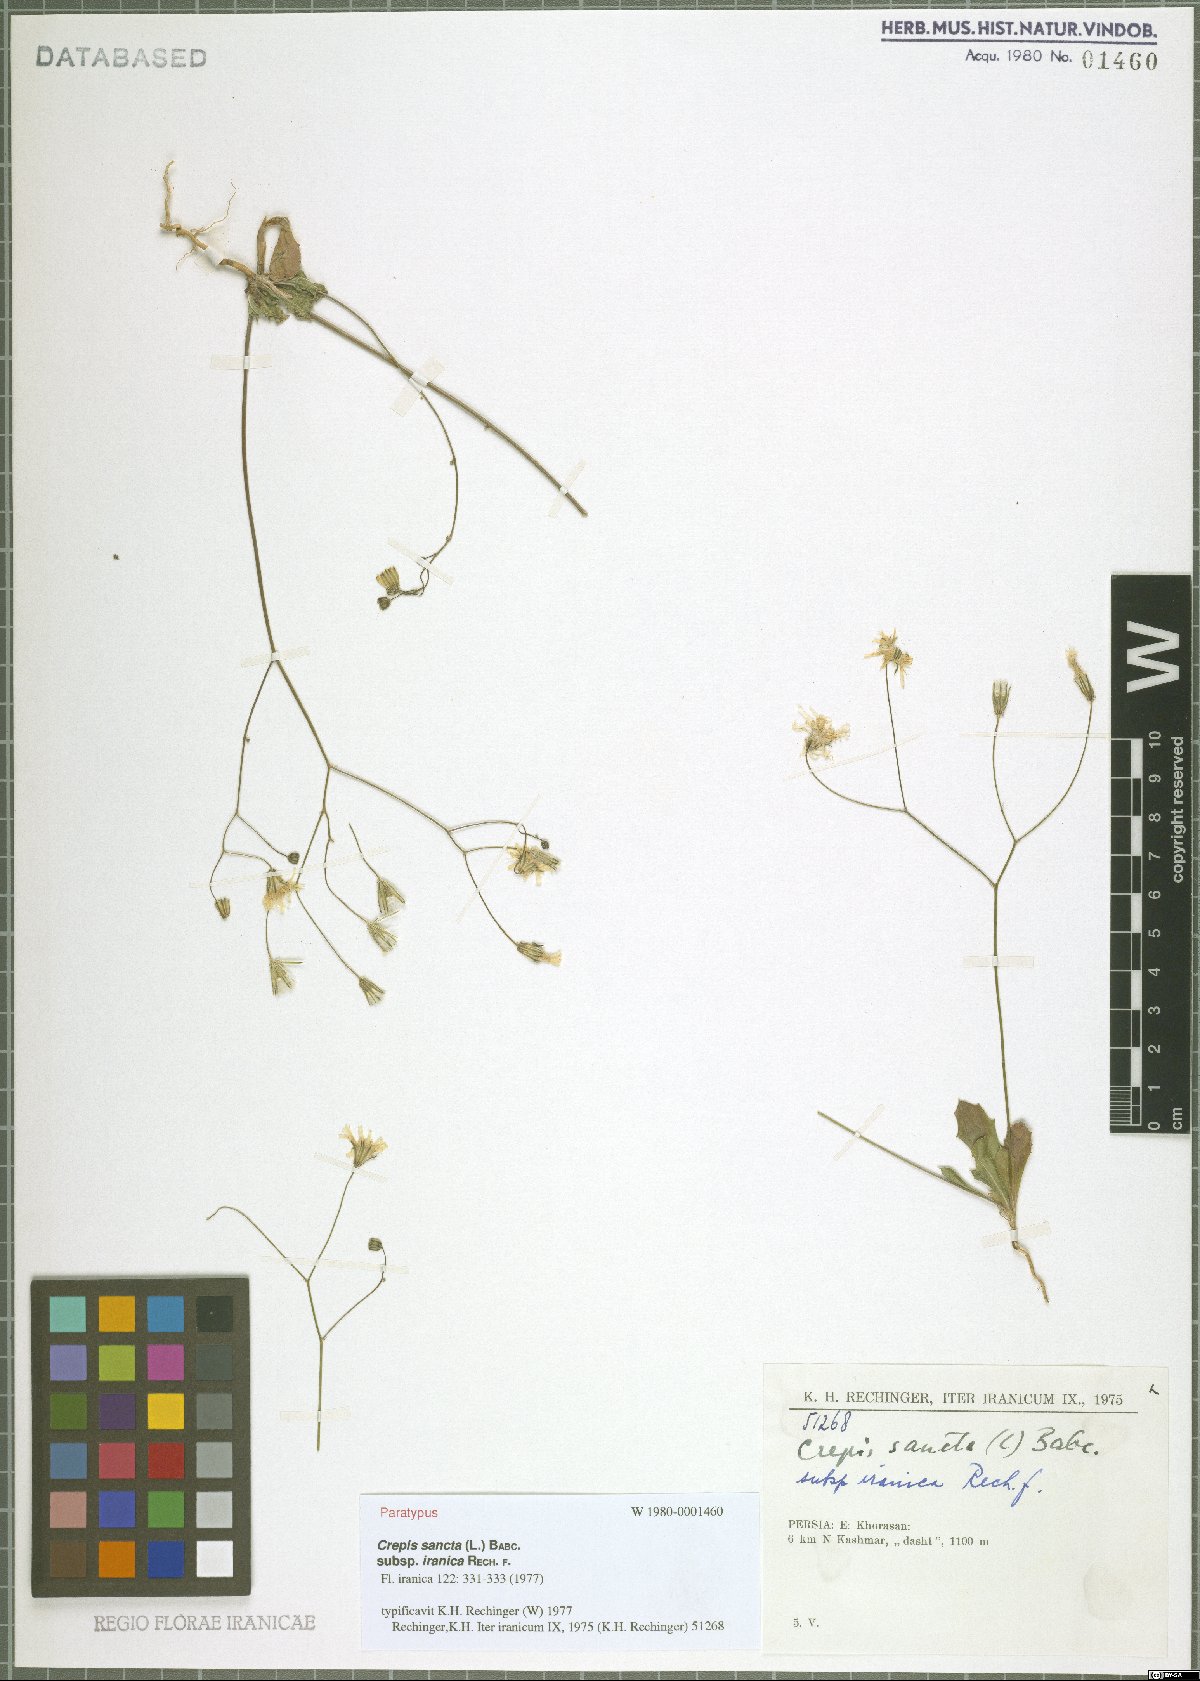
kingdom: Plantae
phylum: Tracheophyta
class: Magnoliopsida
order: Asterales
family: Asteraceae
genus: Crepis
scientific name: Crepis sancta
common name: Hawk's-beard
